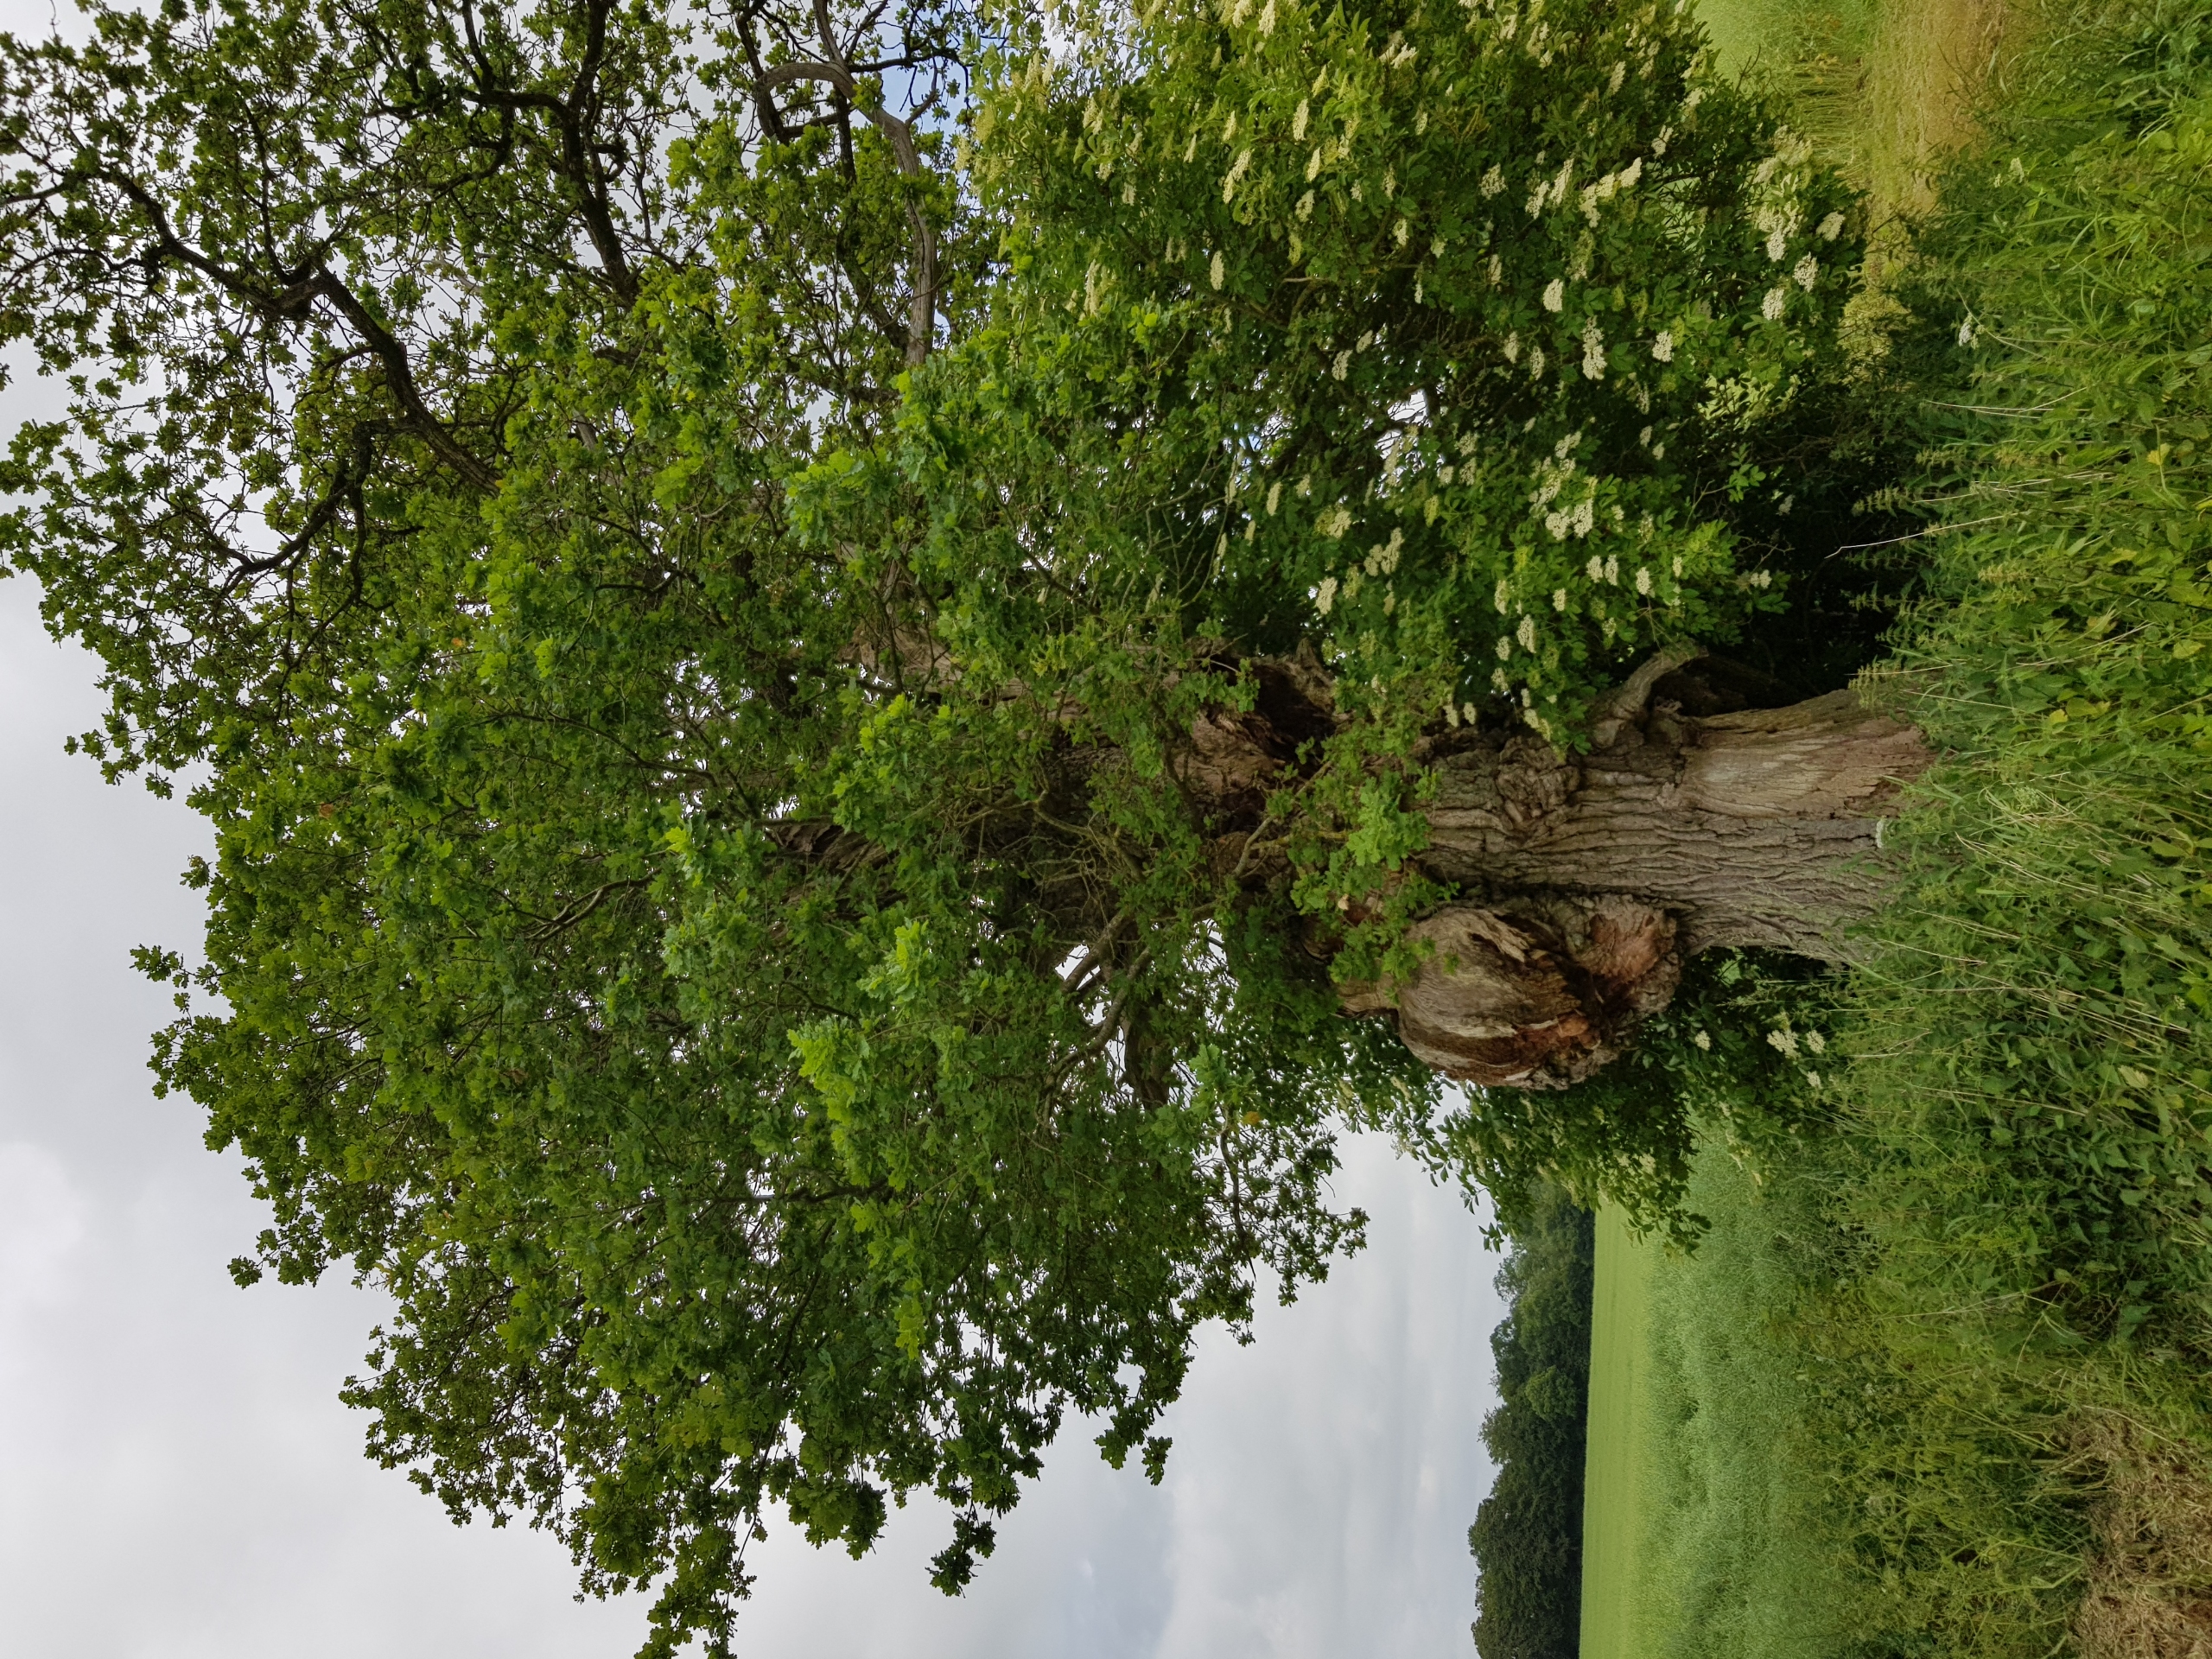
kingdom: Plantae
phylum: Tracheophyta
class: Magnoliopsida
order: Fagales
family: Fagaceae
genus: Quercus
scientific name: Quercus robur
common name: Stilk-eg/almindelig eg
